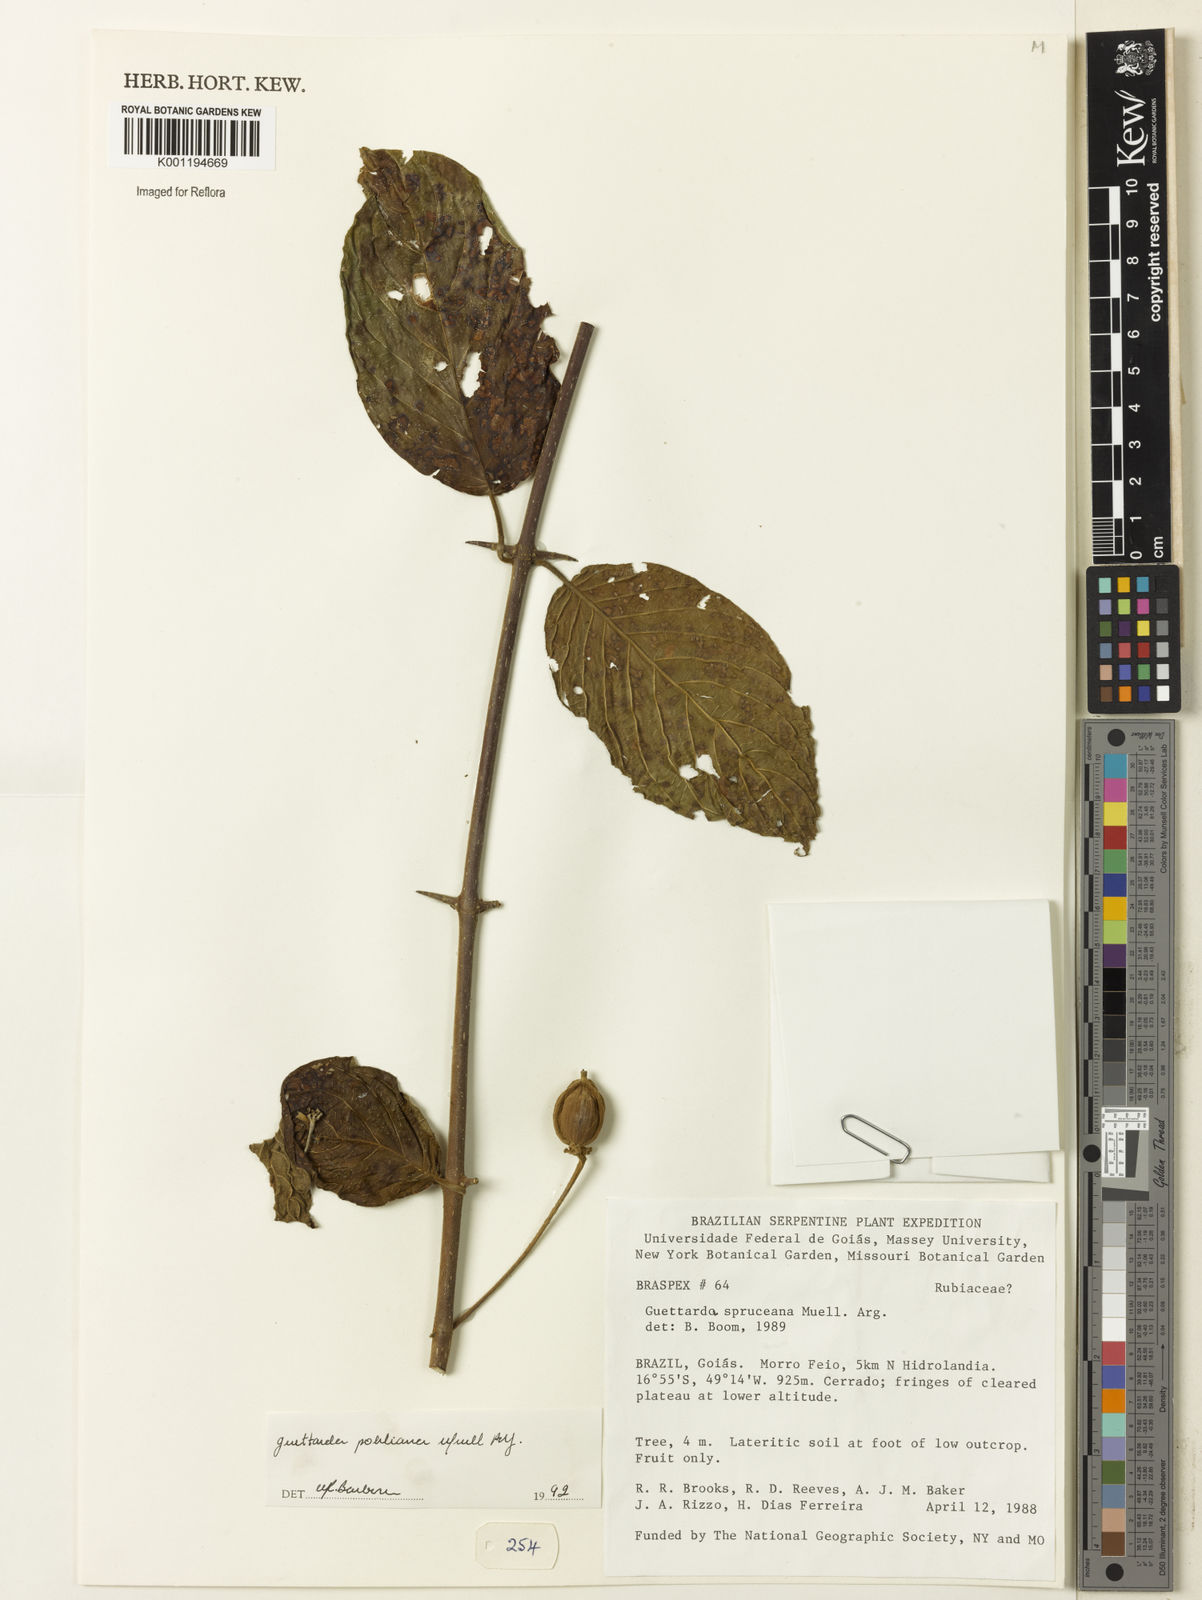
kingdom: Plantae
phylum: Tracheophyta
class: Magnoliopsida
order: Gentianales
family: Rubiaceae
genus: Guettarda
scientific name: Guettarda
